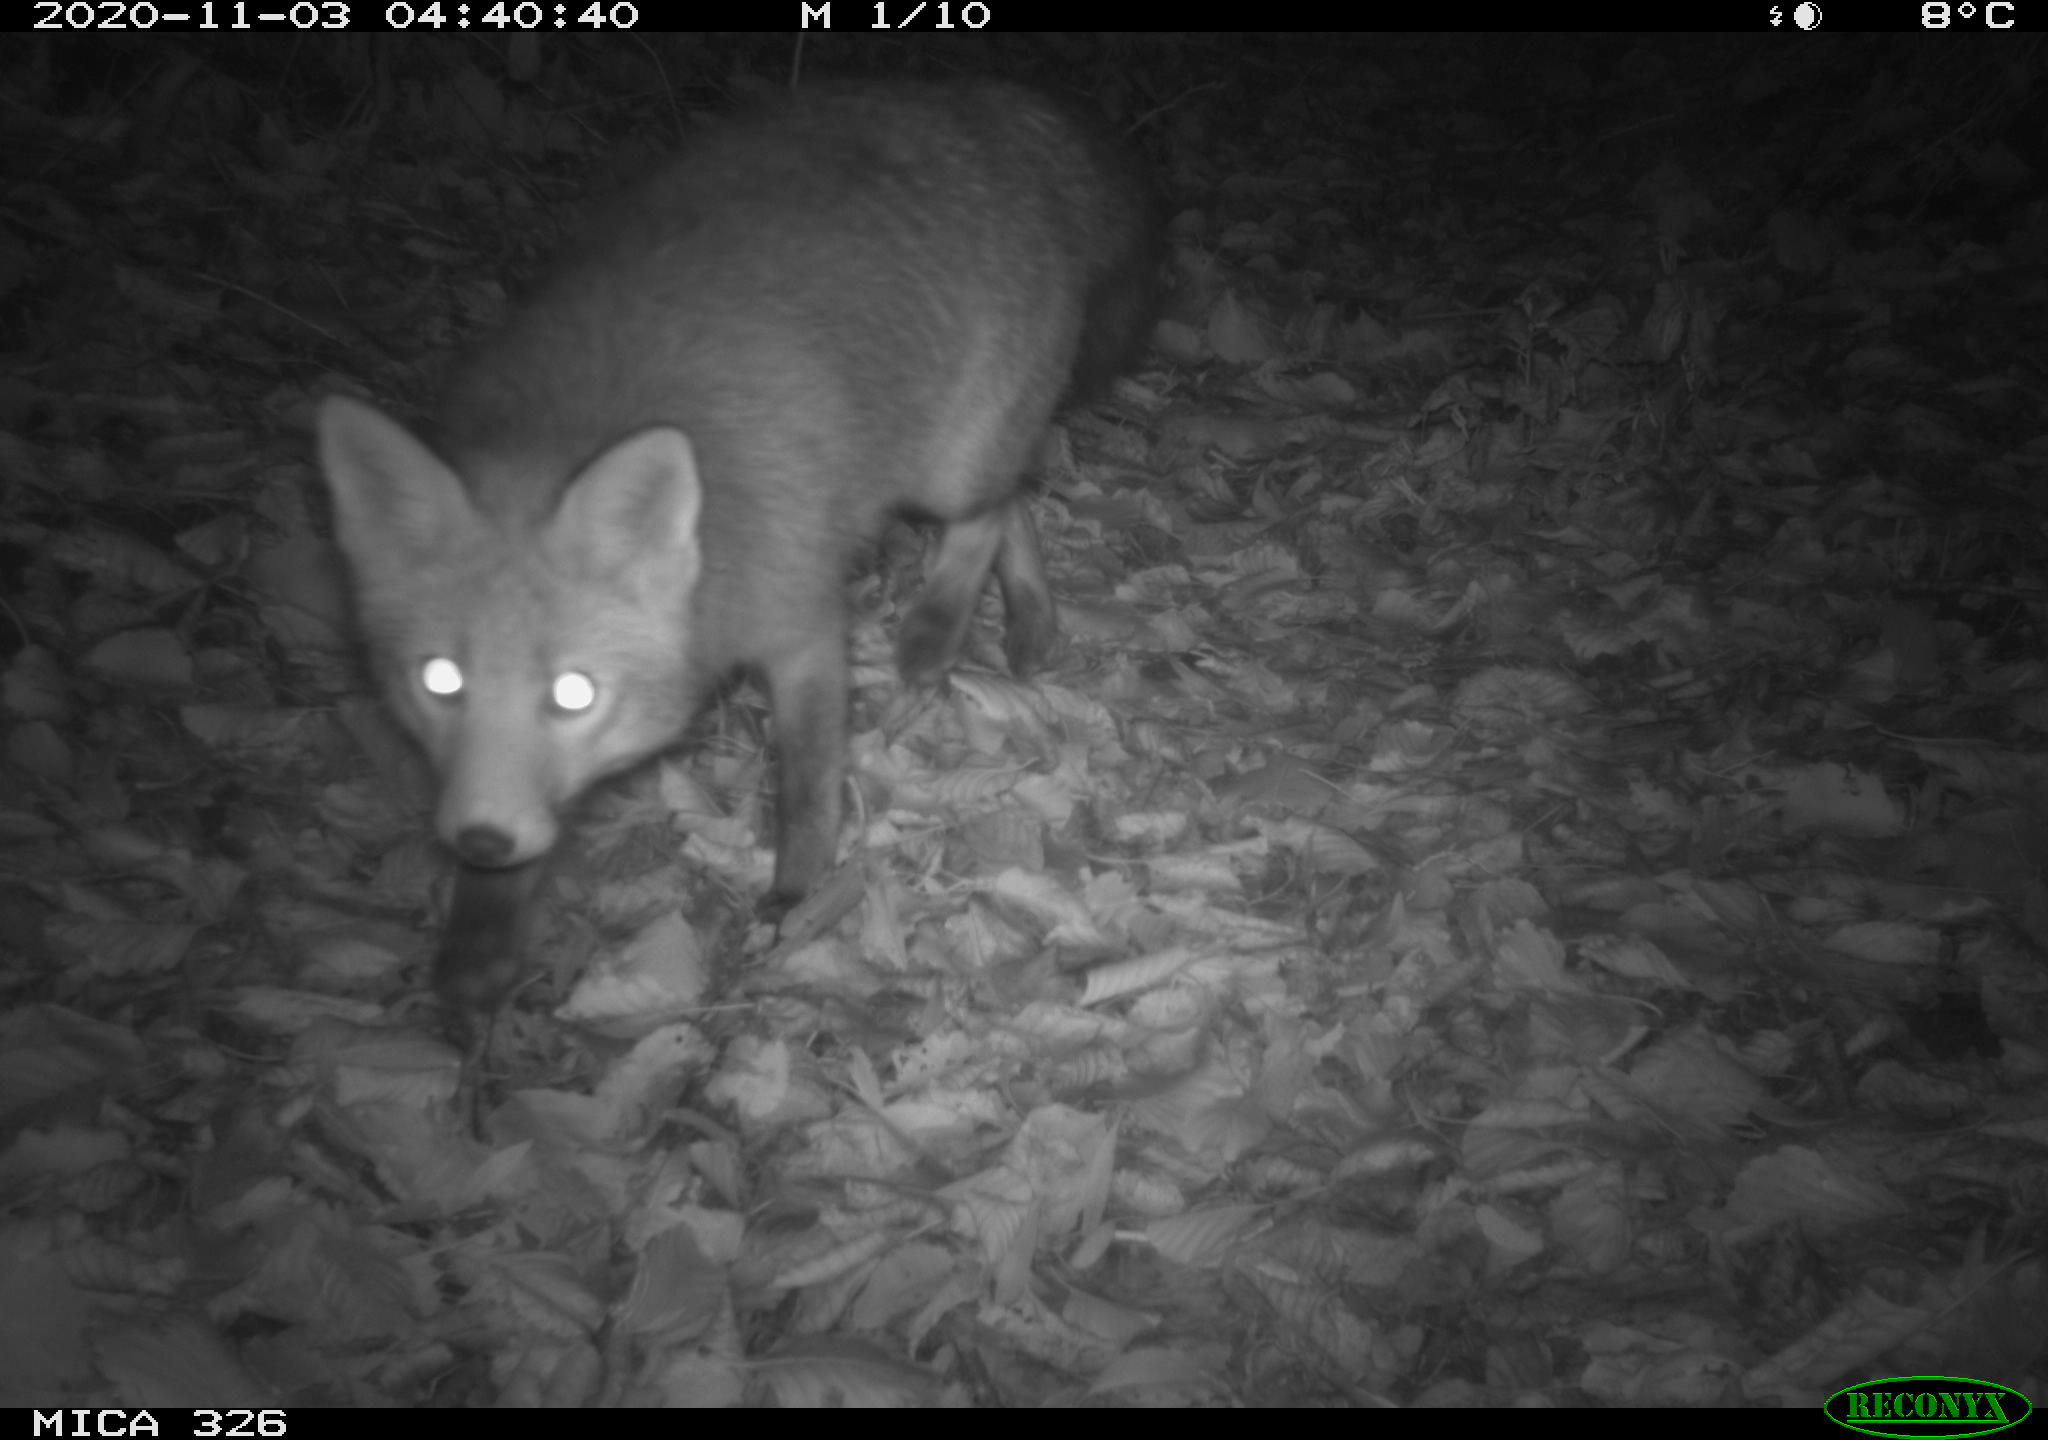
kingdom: Animalia
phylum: Chordata
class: Mammalia
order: Carnivora
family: Canidae
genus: Vulpes
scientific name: Vulpes vulpes
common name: Red fox
